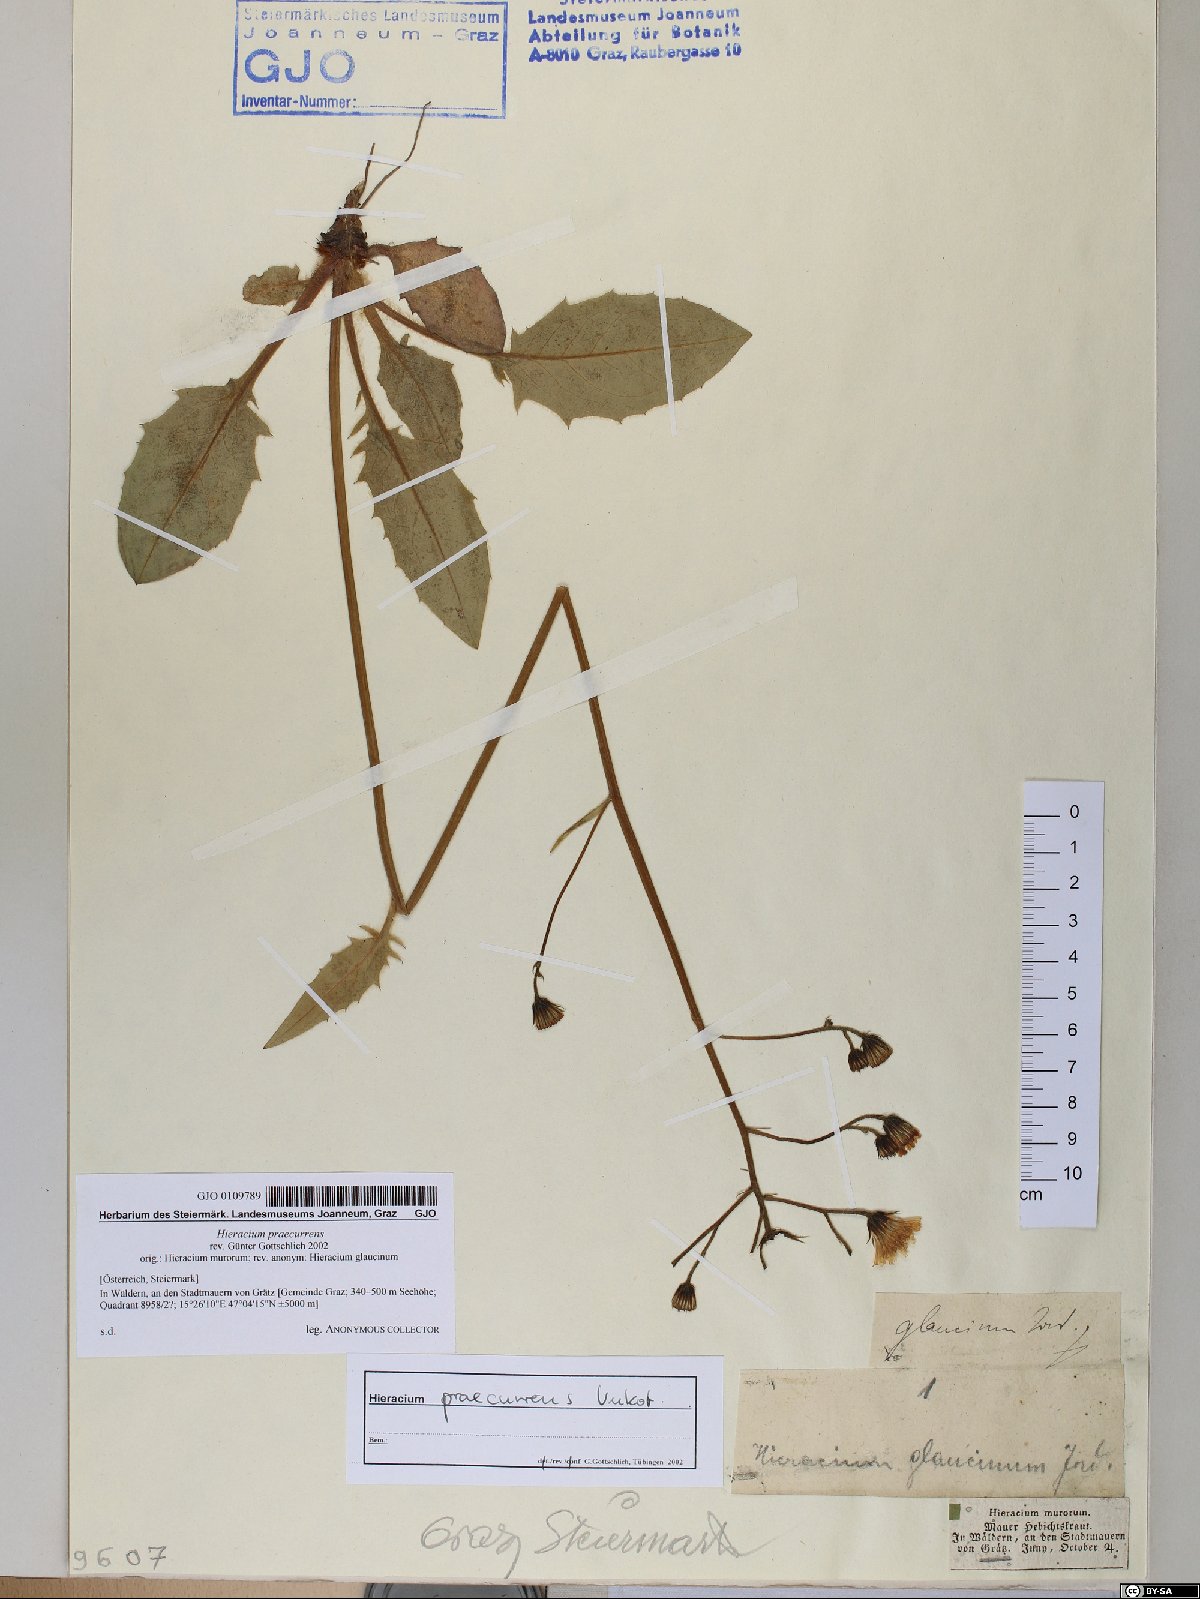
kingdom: Plantae
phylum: Tracheophyta
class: Magnoliopsida
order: Asterales
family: Asteraceae
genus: Hieracium
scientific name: Hieracium rotundatum
